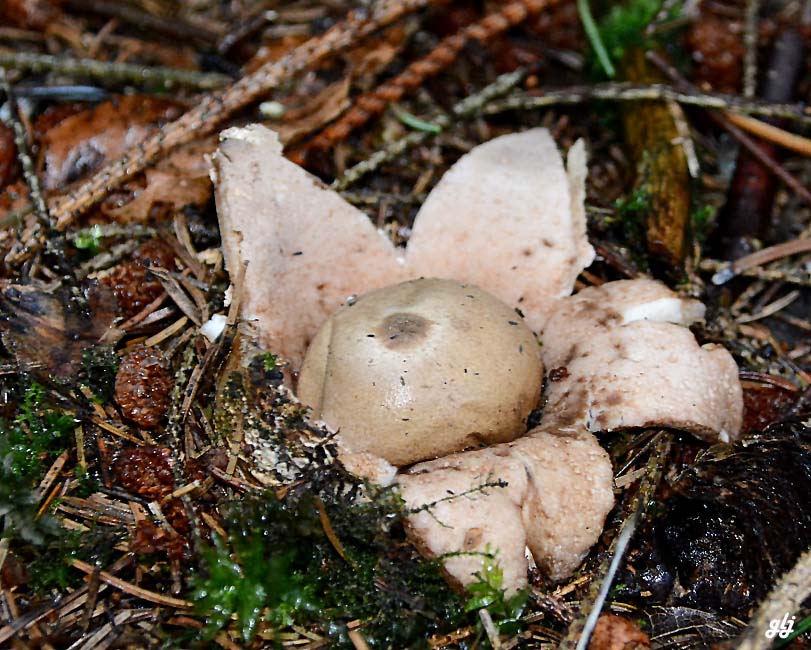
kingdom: Fungi
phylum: Basidiomycota
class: Agaricomycetes
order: Geastrales
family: Geastraceae
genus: Geastrum
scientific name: Geastrum rufescens
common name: kødfarvet stjernebold
